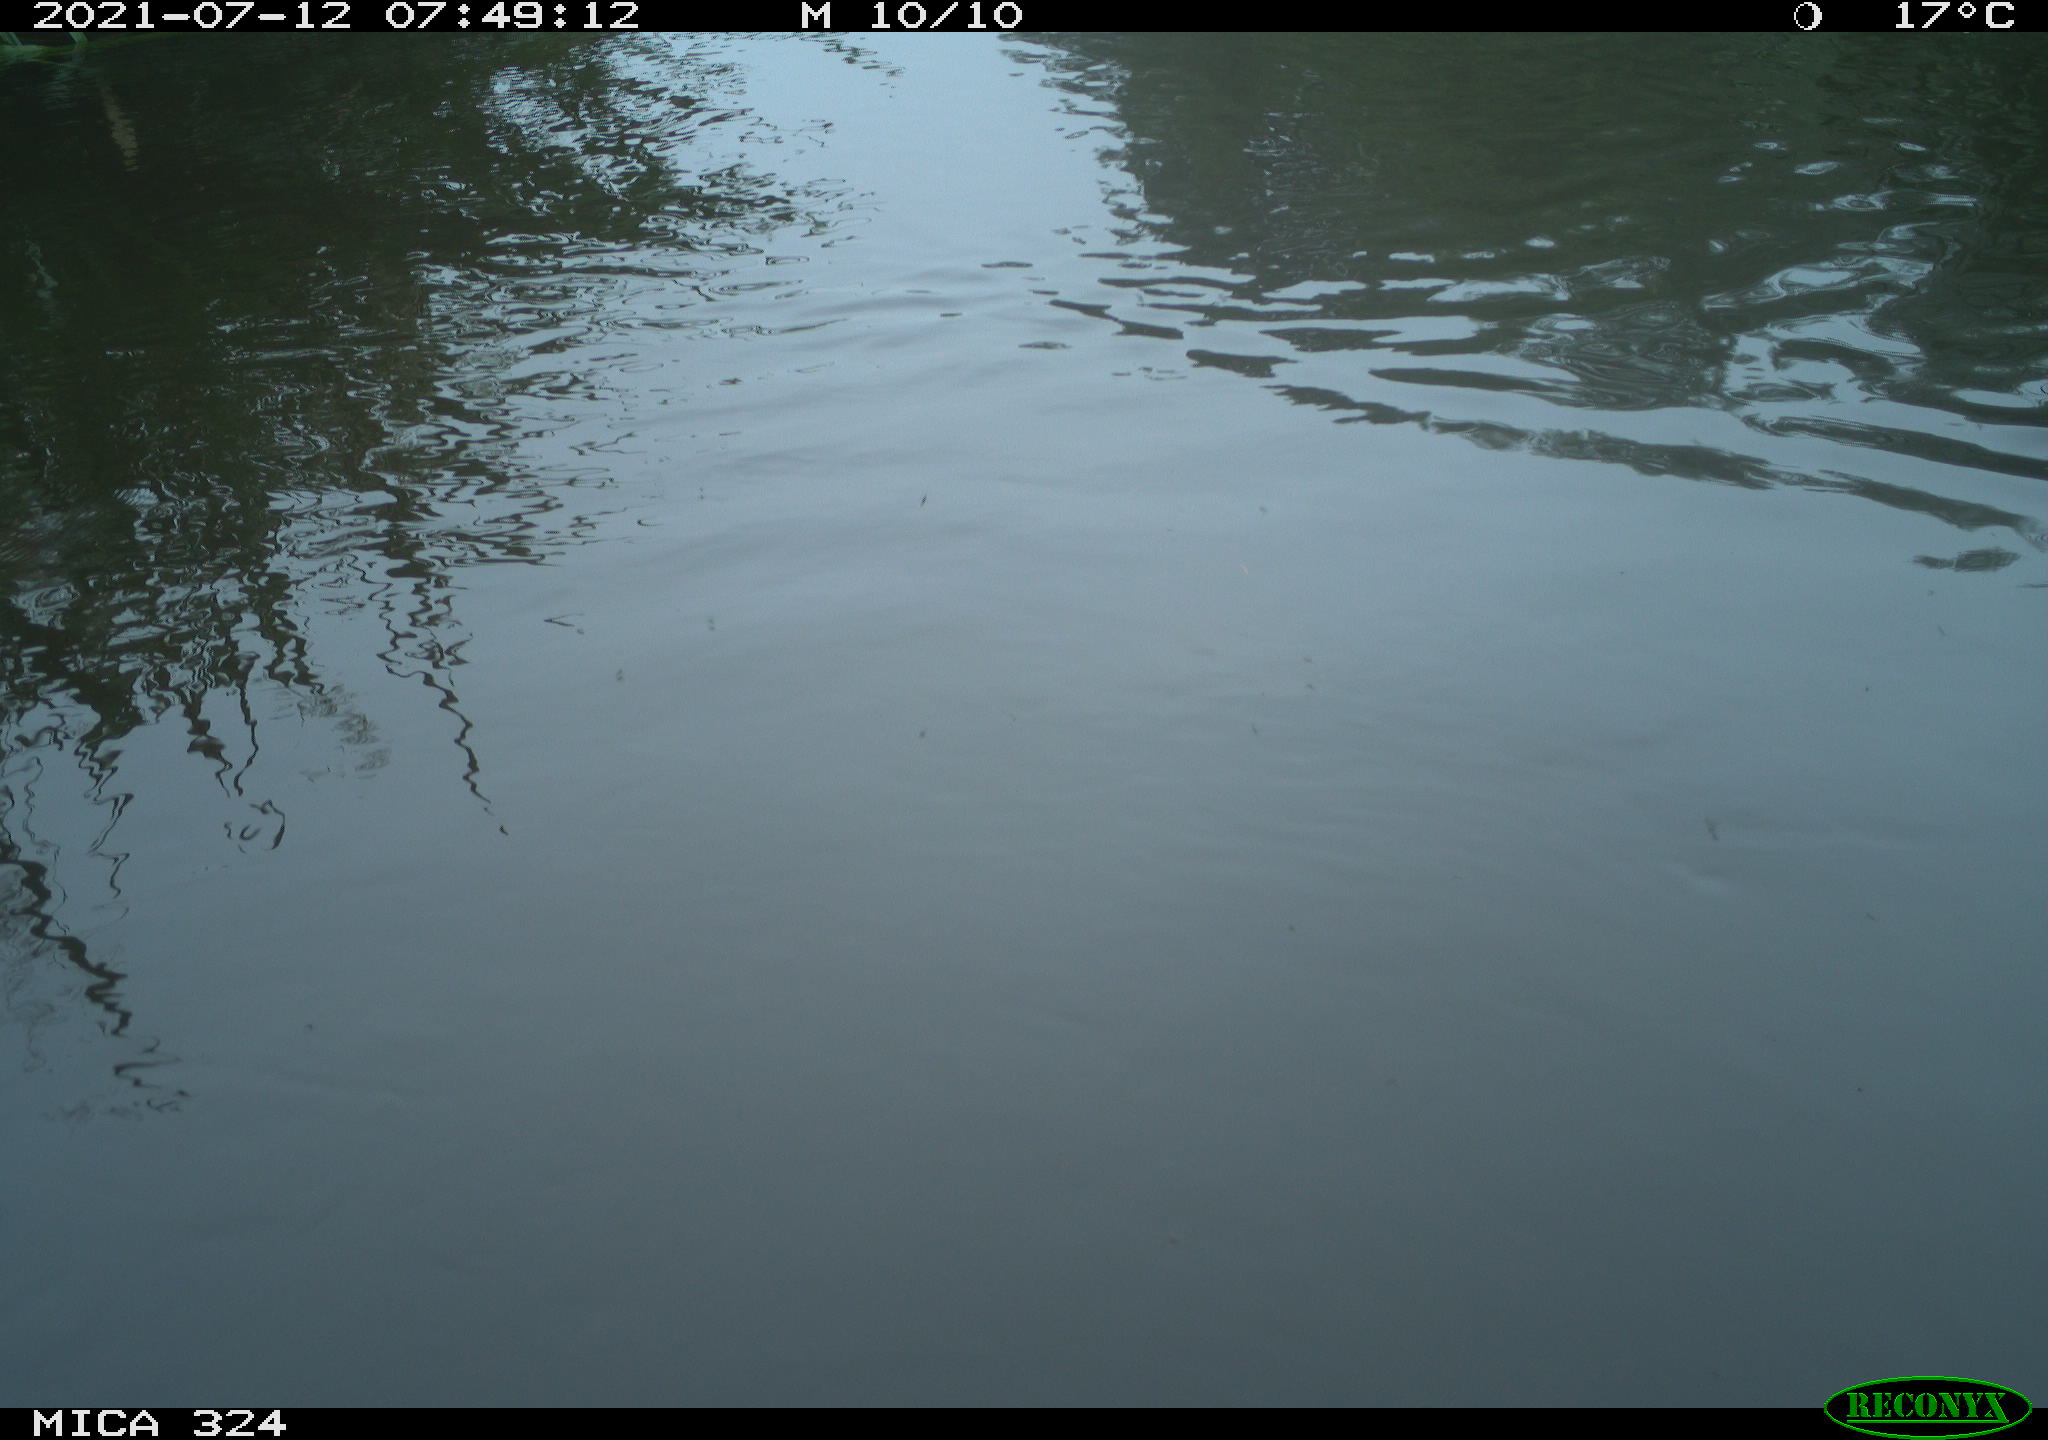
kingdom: Animalia
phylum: Chordata
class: Aves
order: Gruiformes
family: Rallidae
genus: Gallinula
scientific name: Gallinula chloropus
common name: Common moorhen
